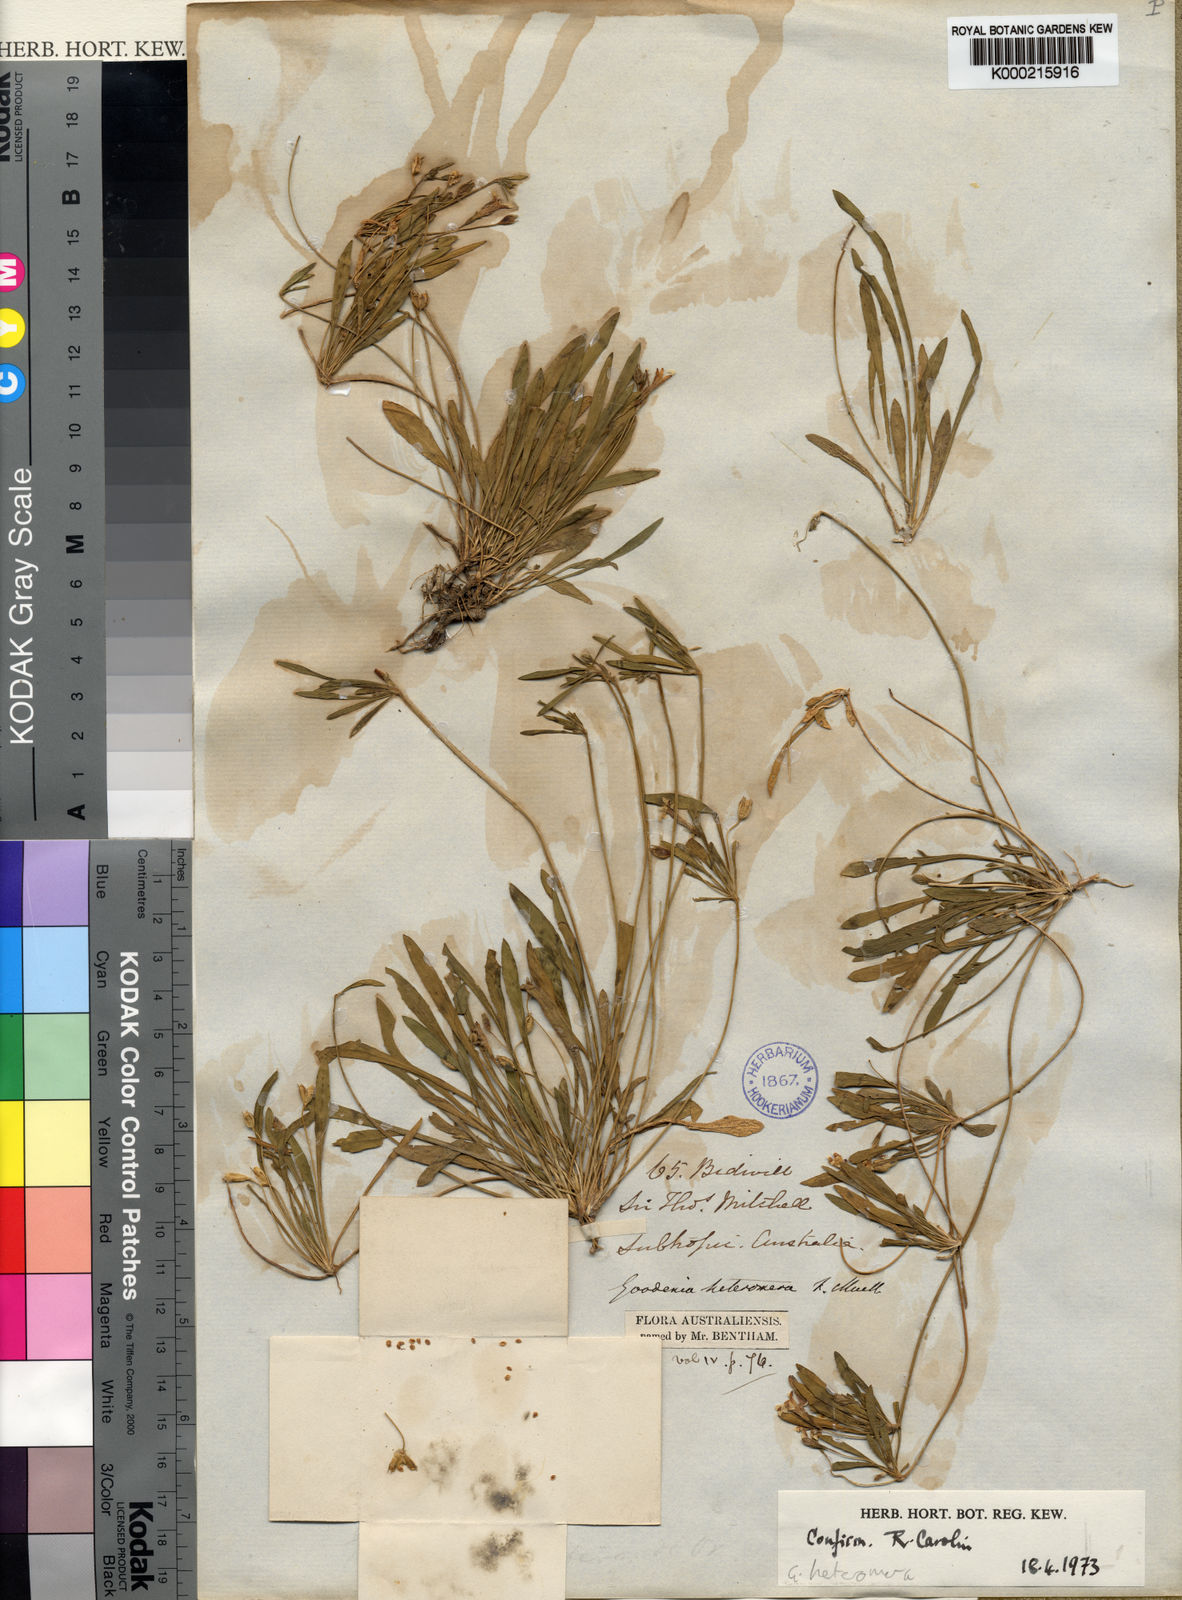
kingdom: Plantae
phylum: Tracheophyta
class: Magnoliopsida
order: Asterales
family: Goodeniaceae
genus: Goodenia
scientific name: Goodenia heteromera
